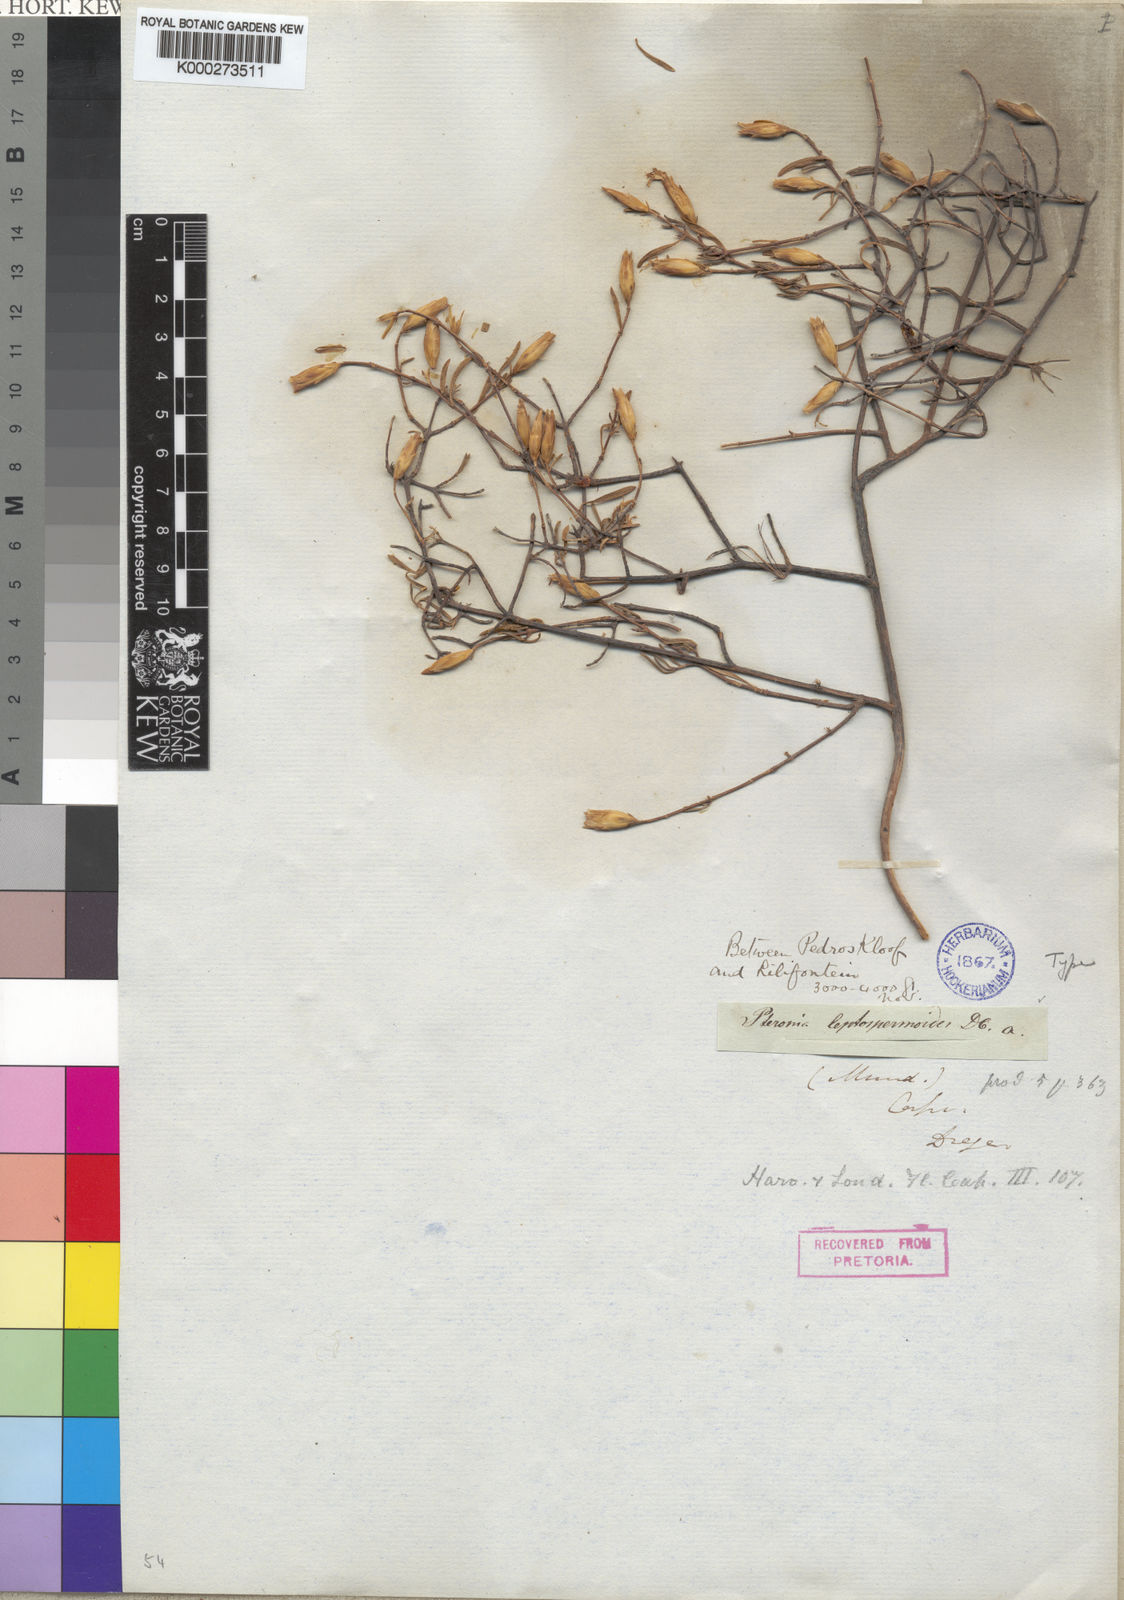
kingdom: Plantae
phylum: Tracheophyta
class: Magnoliopsida
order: Asterales
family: Asteraceae
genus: Pteronia
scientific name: Pteronia leptospermoides
